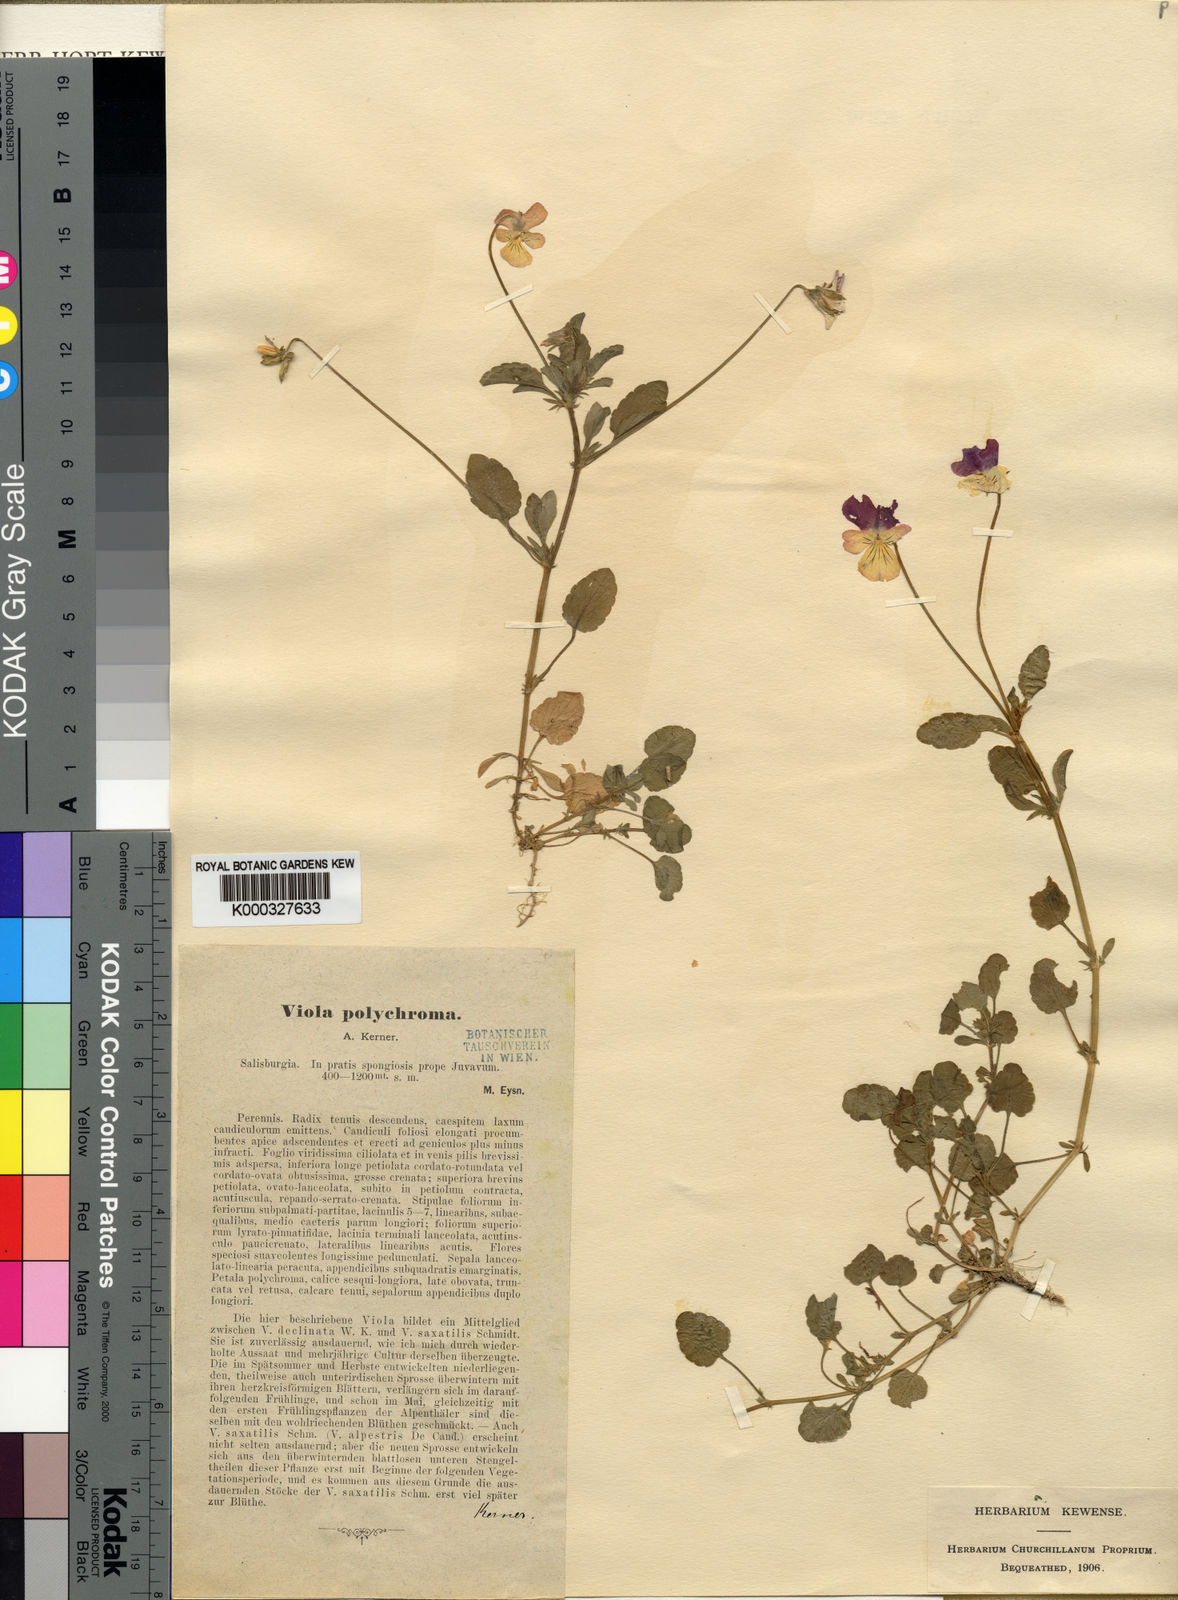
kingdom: Plantae
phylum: Tracheophyta
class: Magnoliopsida
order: Malpighiales
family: Violaceae
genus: Viola
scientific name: Viola tricolor
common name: Pansy
